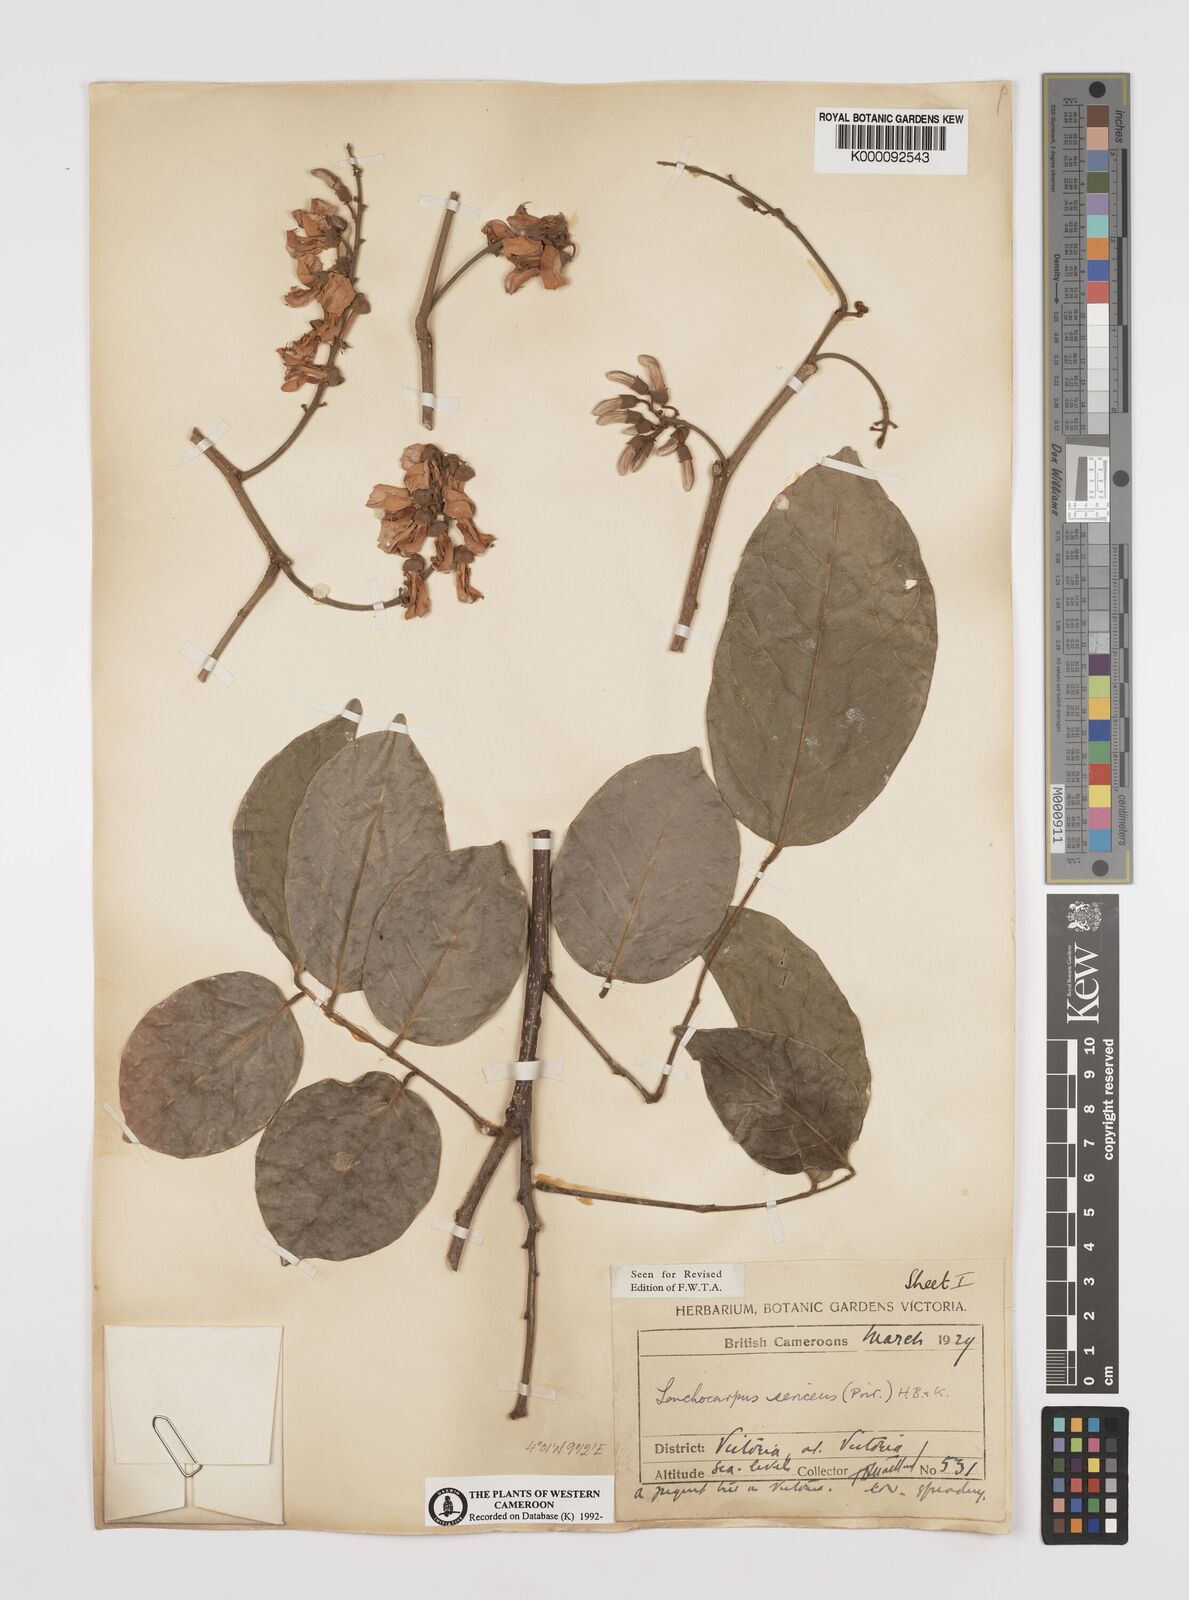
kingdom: Plantae
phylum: Tracheophyta
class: Magnoliopsida
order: Fabales
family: Fabaceae
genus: Lonchocarpus
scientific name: Lonchocarpus
